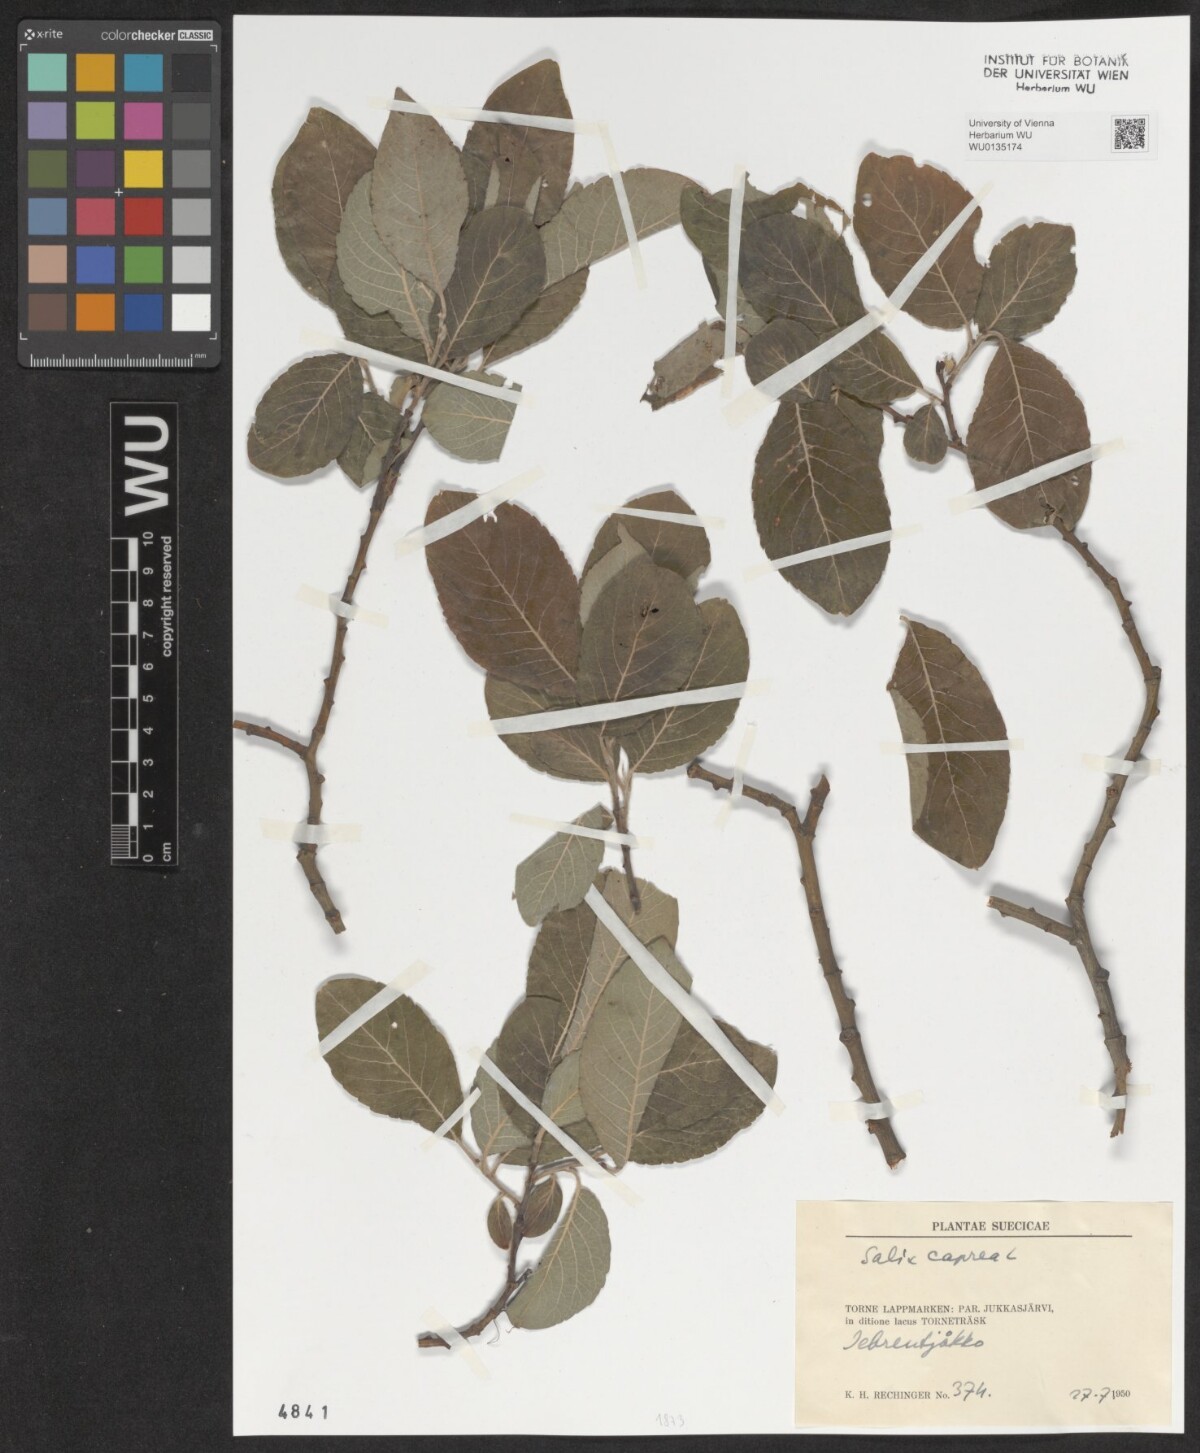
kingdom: Plantae
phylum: Tracheophyta
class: Magnoliopsida
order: Malpighiales
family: Salicaceae
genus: Salix
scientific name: Salix caprea
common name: Goat willow
